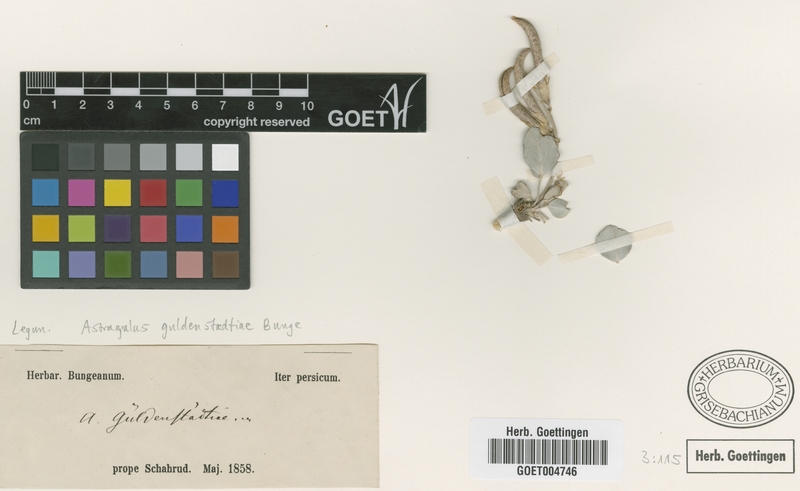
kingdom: Plantae
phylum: Tracheophyta
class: Magnoliopsida
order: Fabales
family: Fabaceae
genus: Astragalus
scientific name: Astragalus guldenstaedtiae
